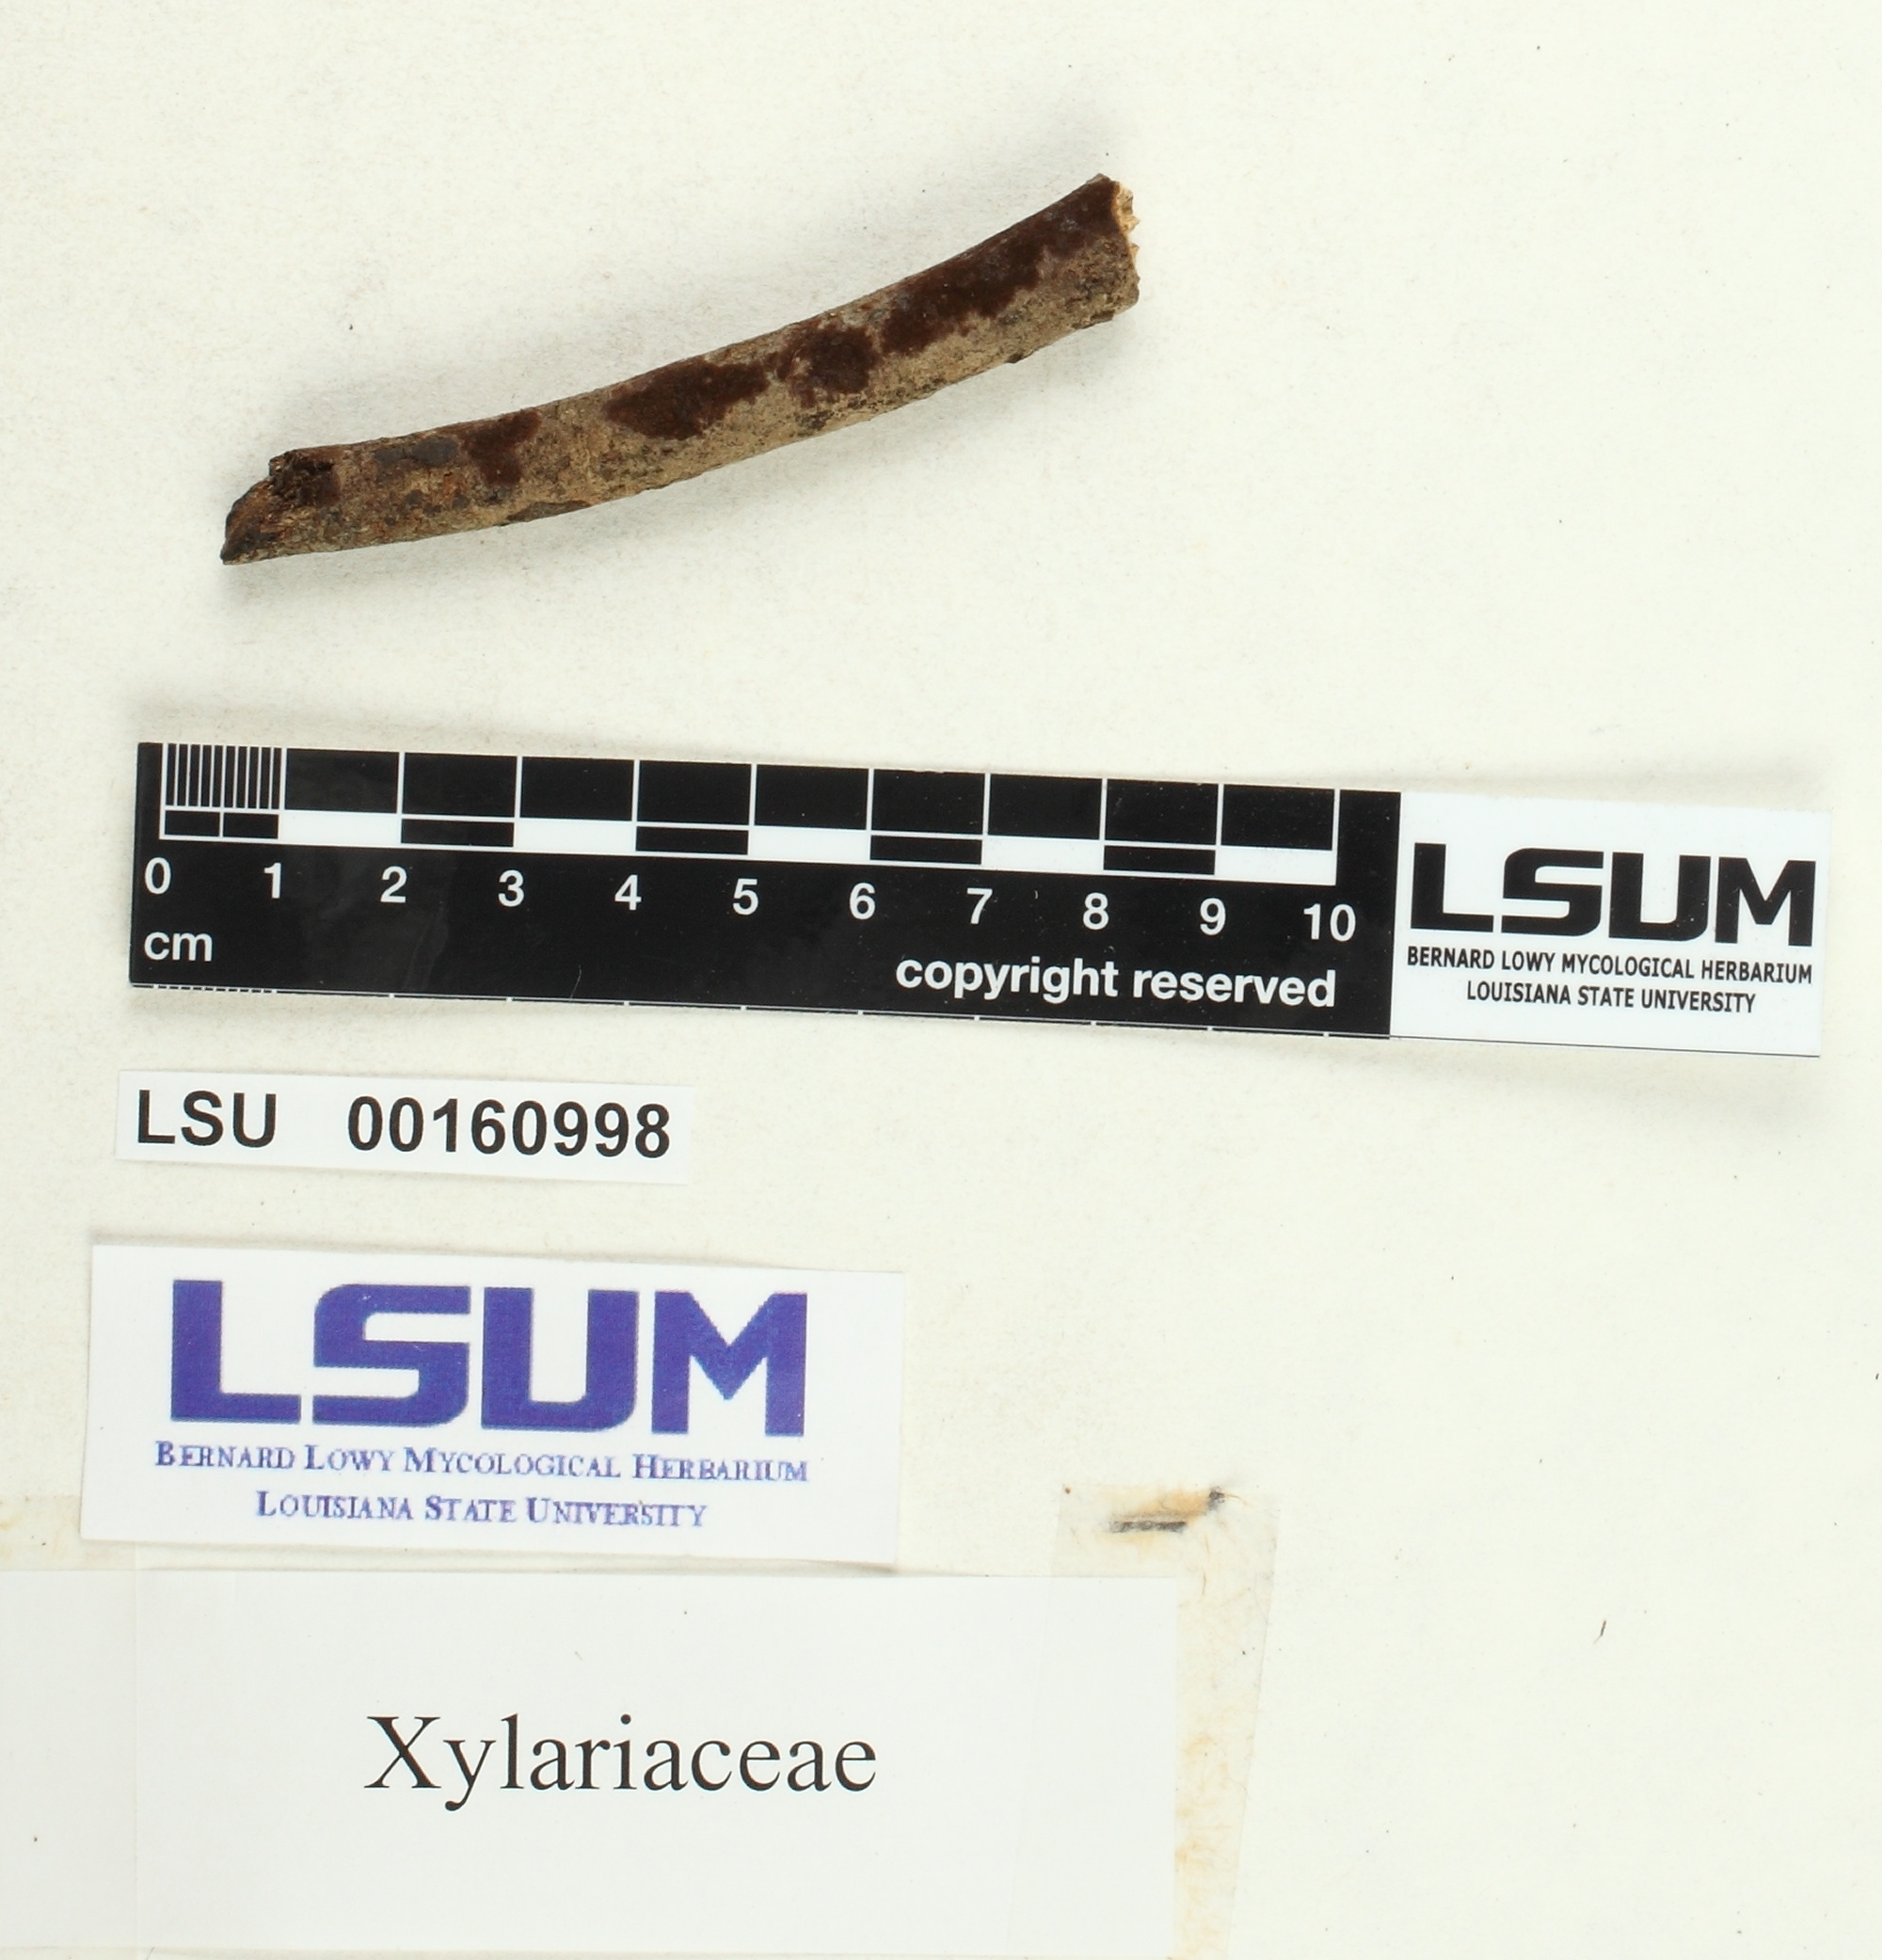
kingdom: Fungi
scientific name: Fungi
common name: Fungi
